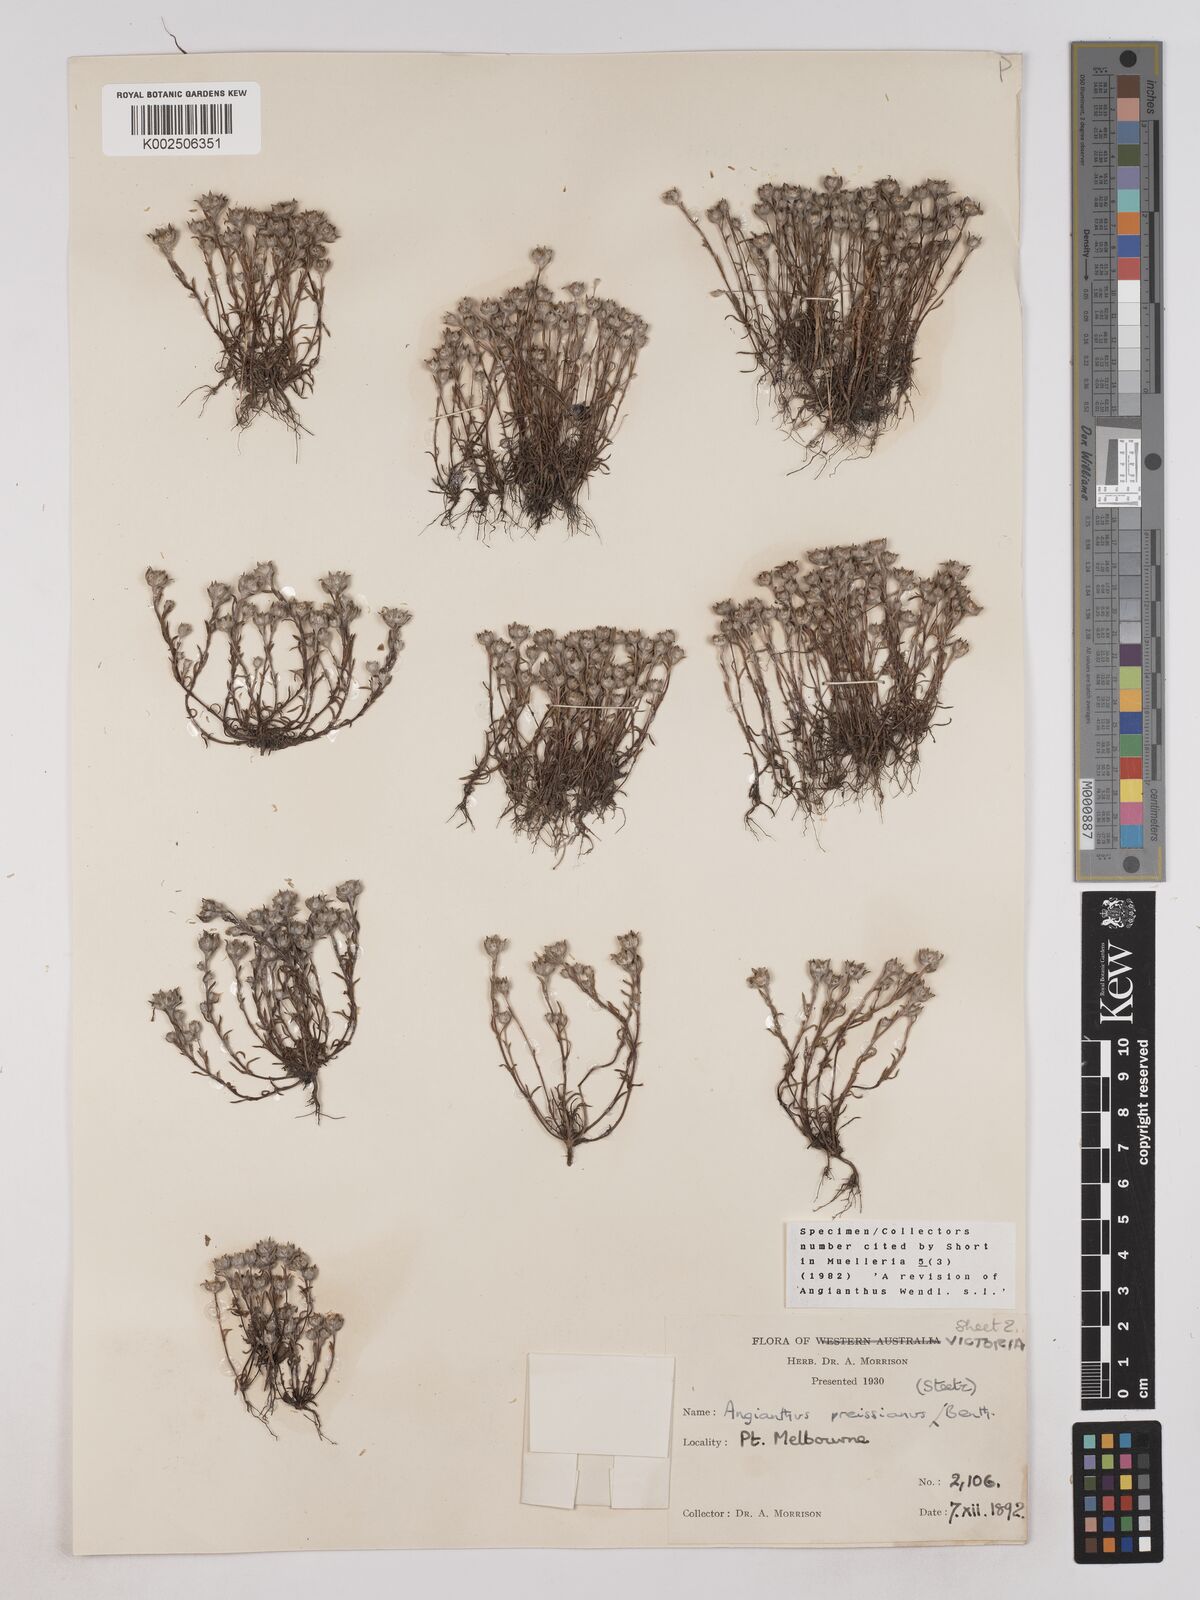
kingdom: Plantae
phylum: Tracheophyta
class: Magnoliopsida
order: Asterales
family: Asteraceae
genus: Angianthus
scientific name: Angianthus preissianus
